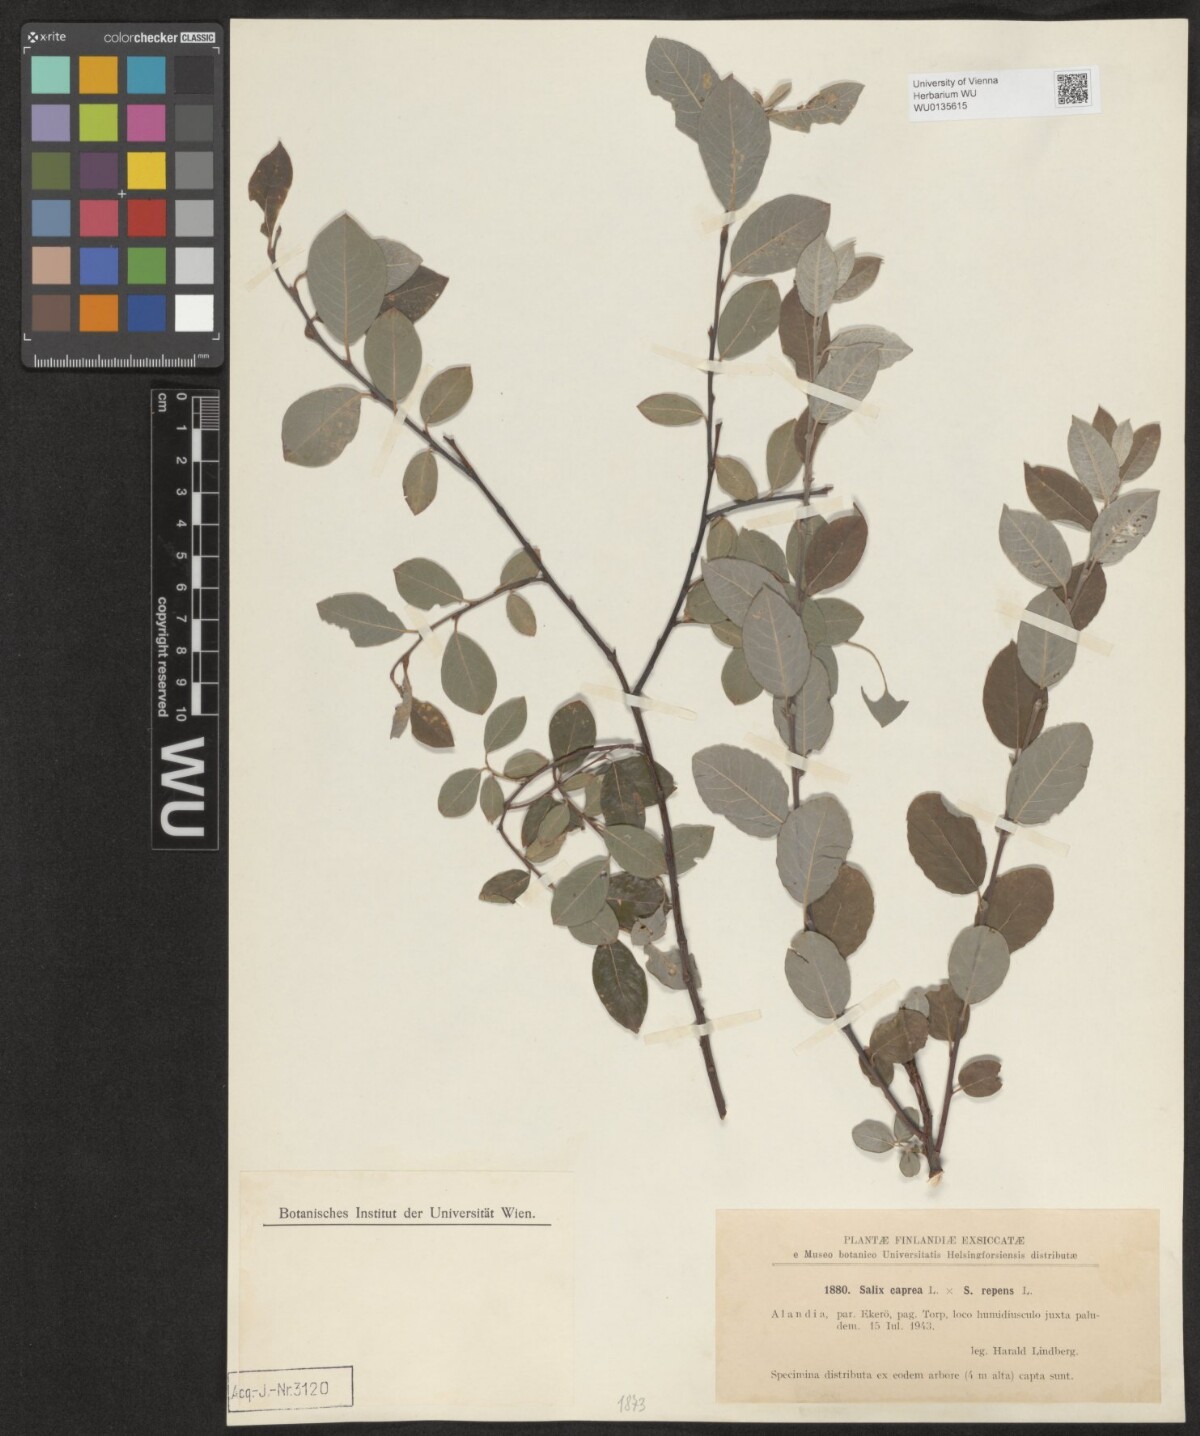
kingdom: Plantae
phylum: Tracheophyta
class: Magnoliopsida
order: Malpighiales
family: Salicaceae
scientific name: Salicaceae
